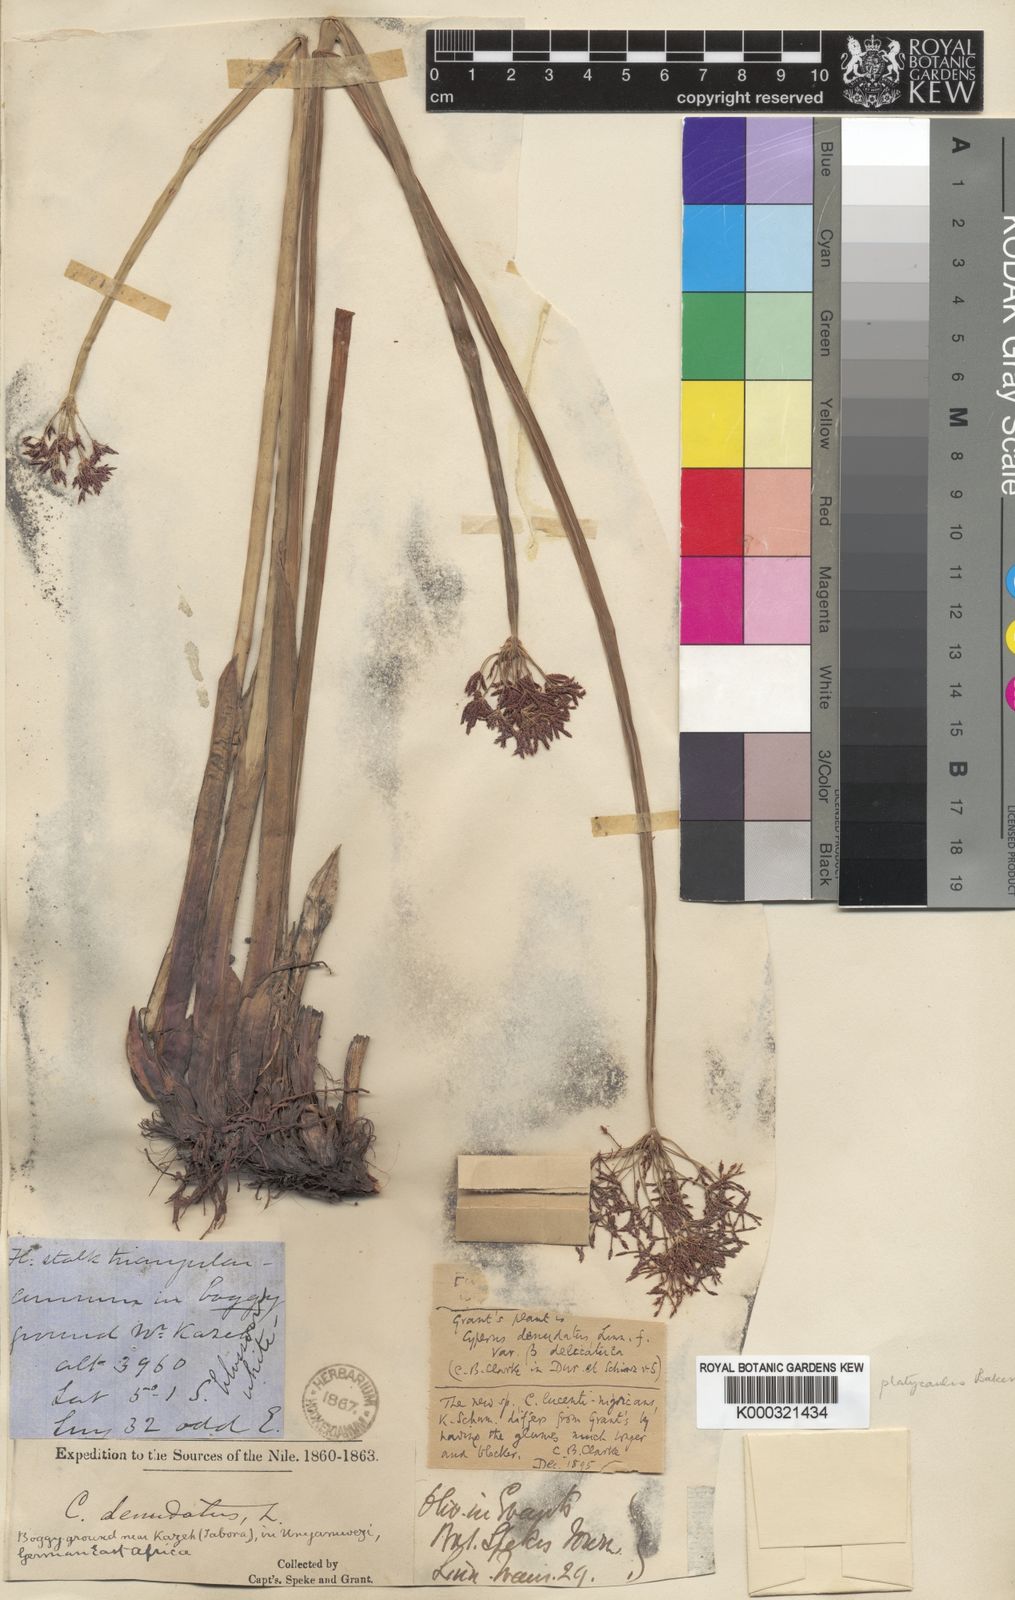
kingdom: Plantae
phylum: Tracheophyta
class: Liliopsida
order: Poales
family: Cyperaceae
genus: Cyperus
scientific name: Cyperus platycaulis
